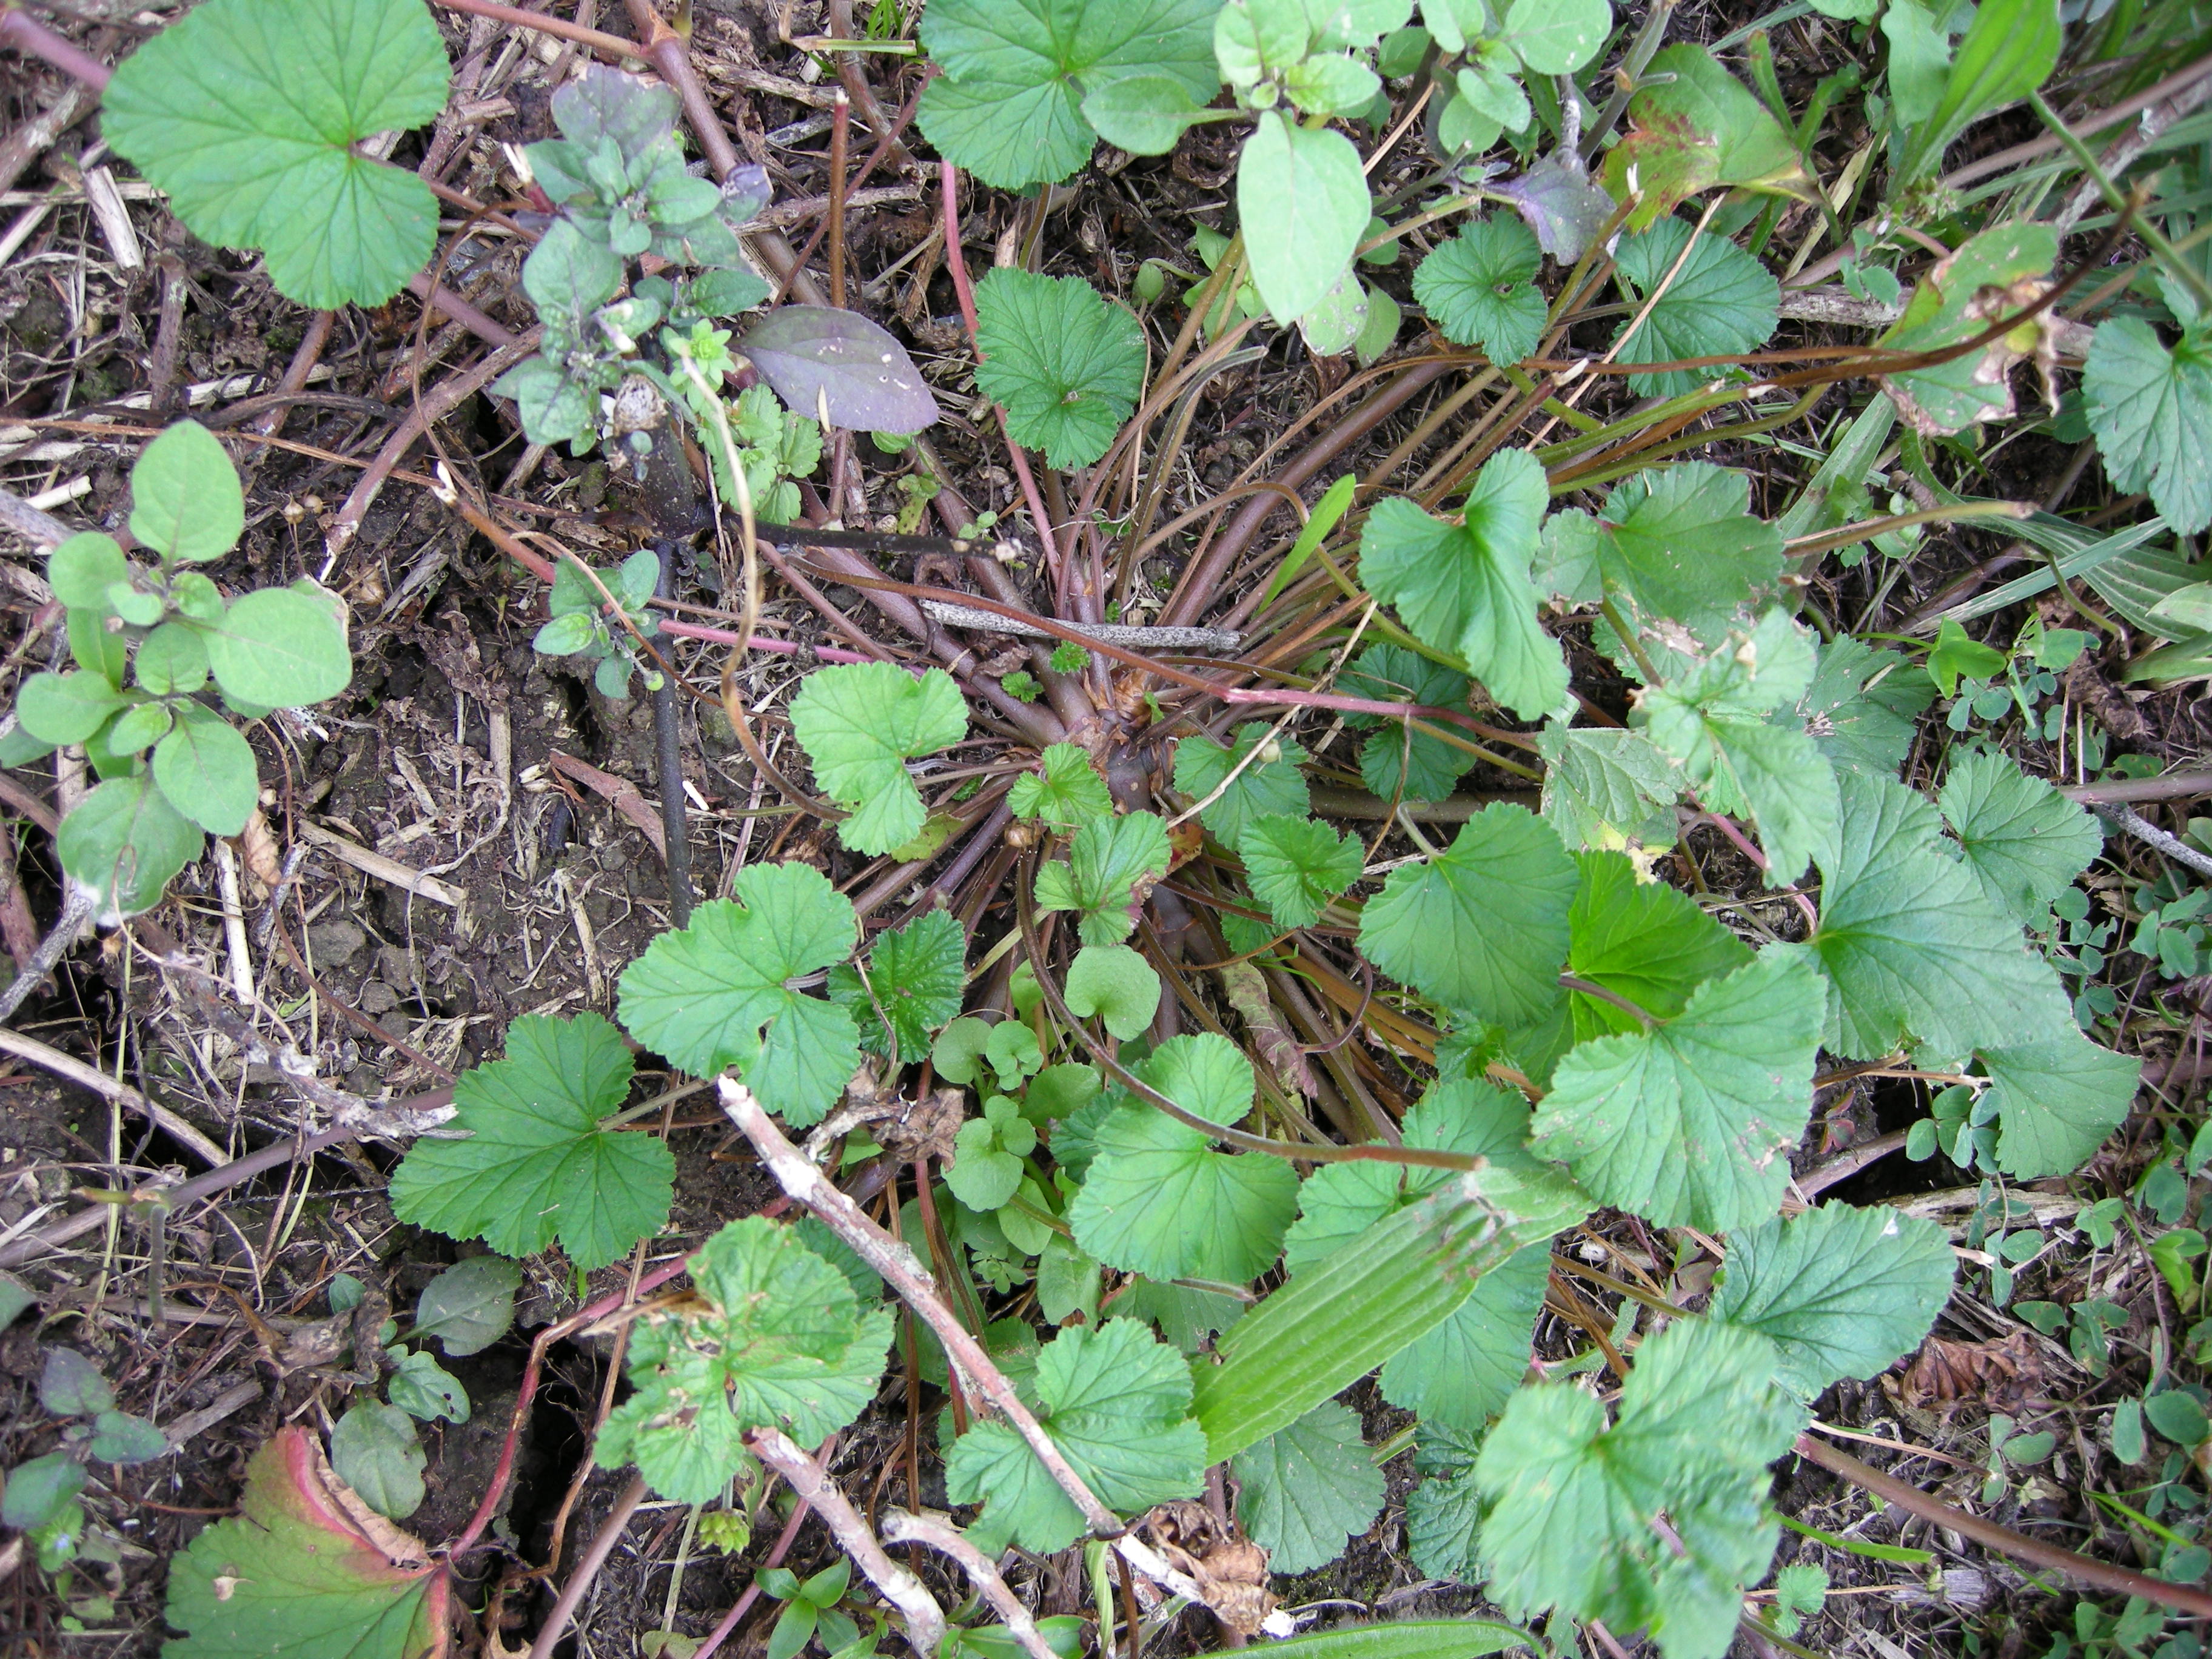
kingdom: Plantae
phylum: Tracheophyta
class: Magnoliopsida
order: Geraniales
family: Geraniaceae
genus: Pelargonium
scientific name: Pelargonium inodorum
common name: Kopata geranium
